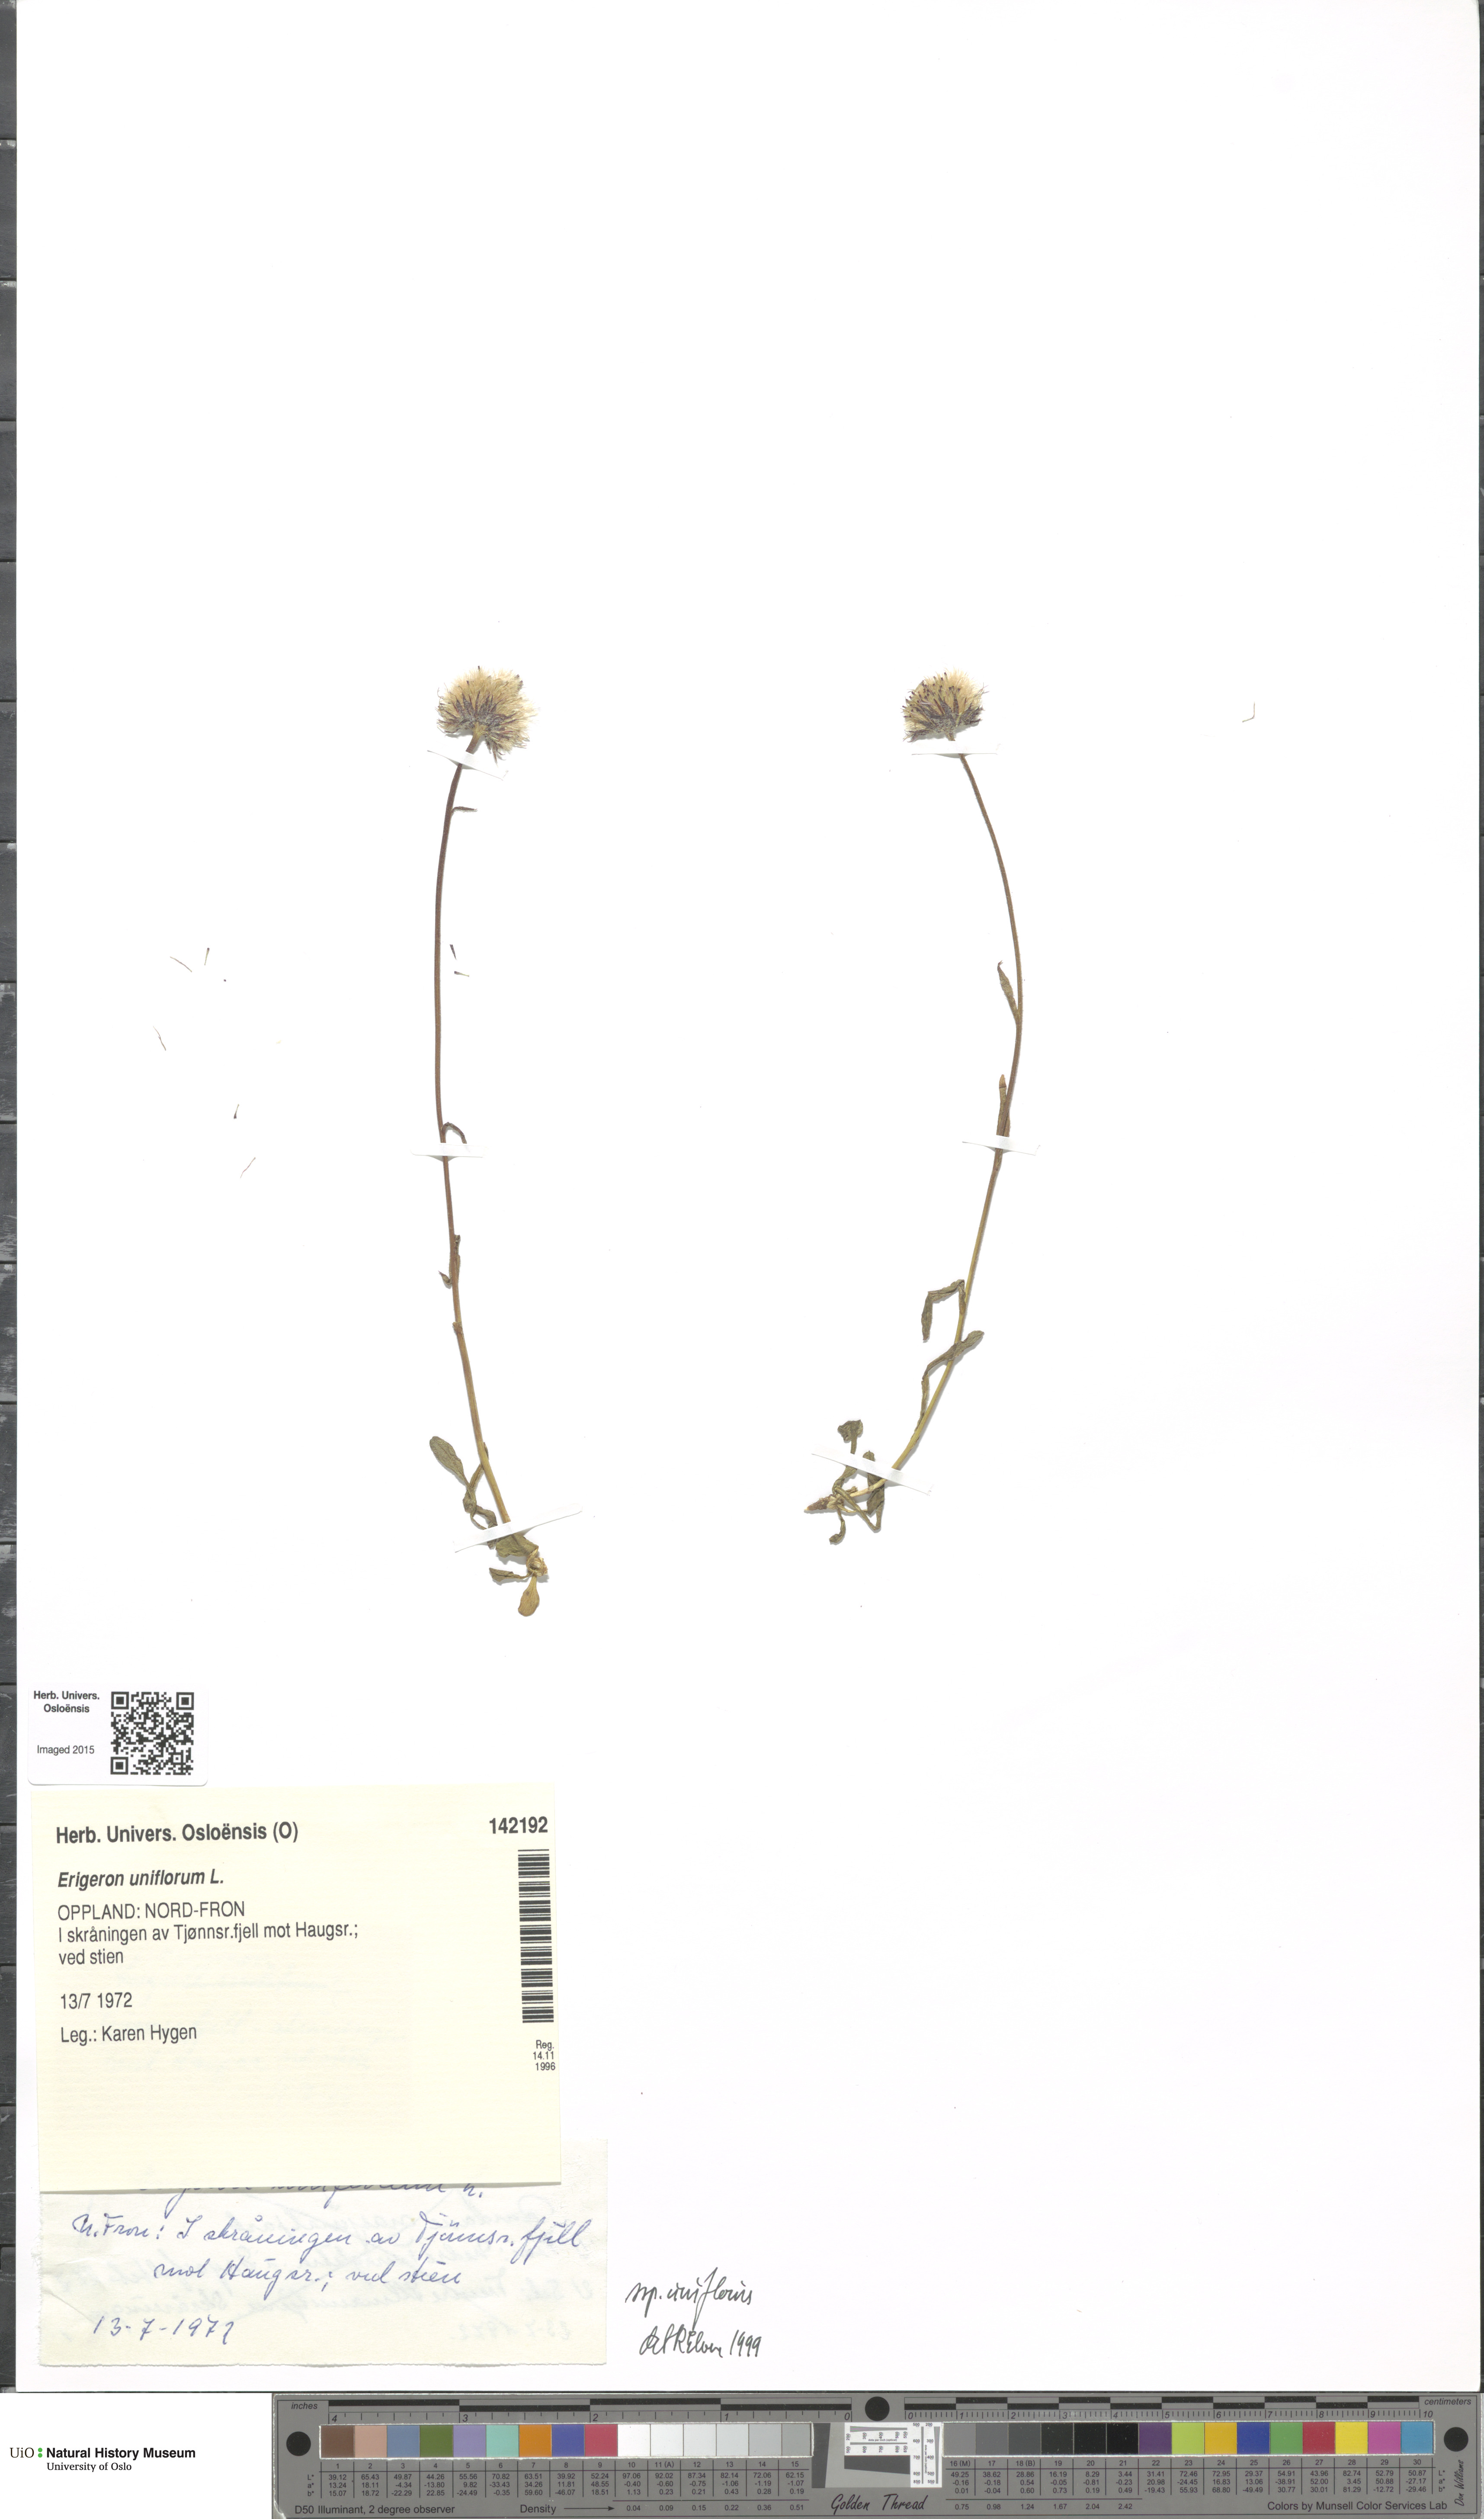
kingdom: Plantae
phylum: Tracheophyta
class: Magnoliopsida
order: Asterales
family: Asteraceae
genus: Erigeron
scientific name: Erigeron uniflorus
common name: Northern daisy
